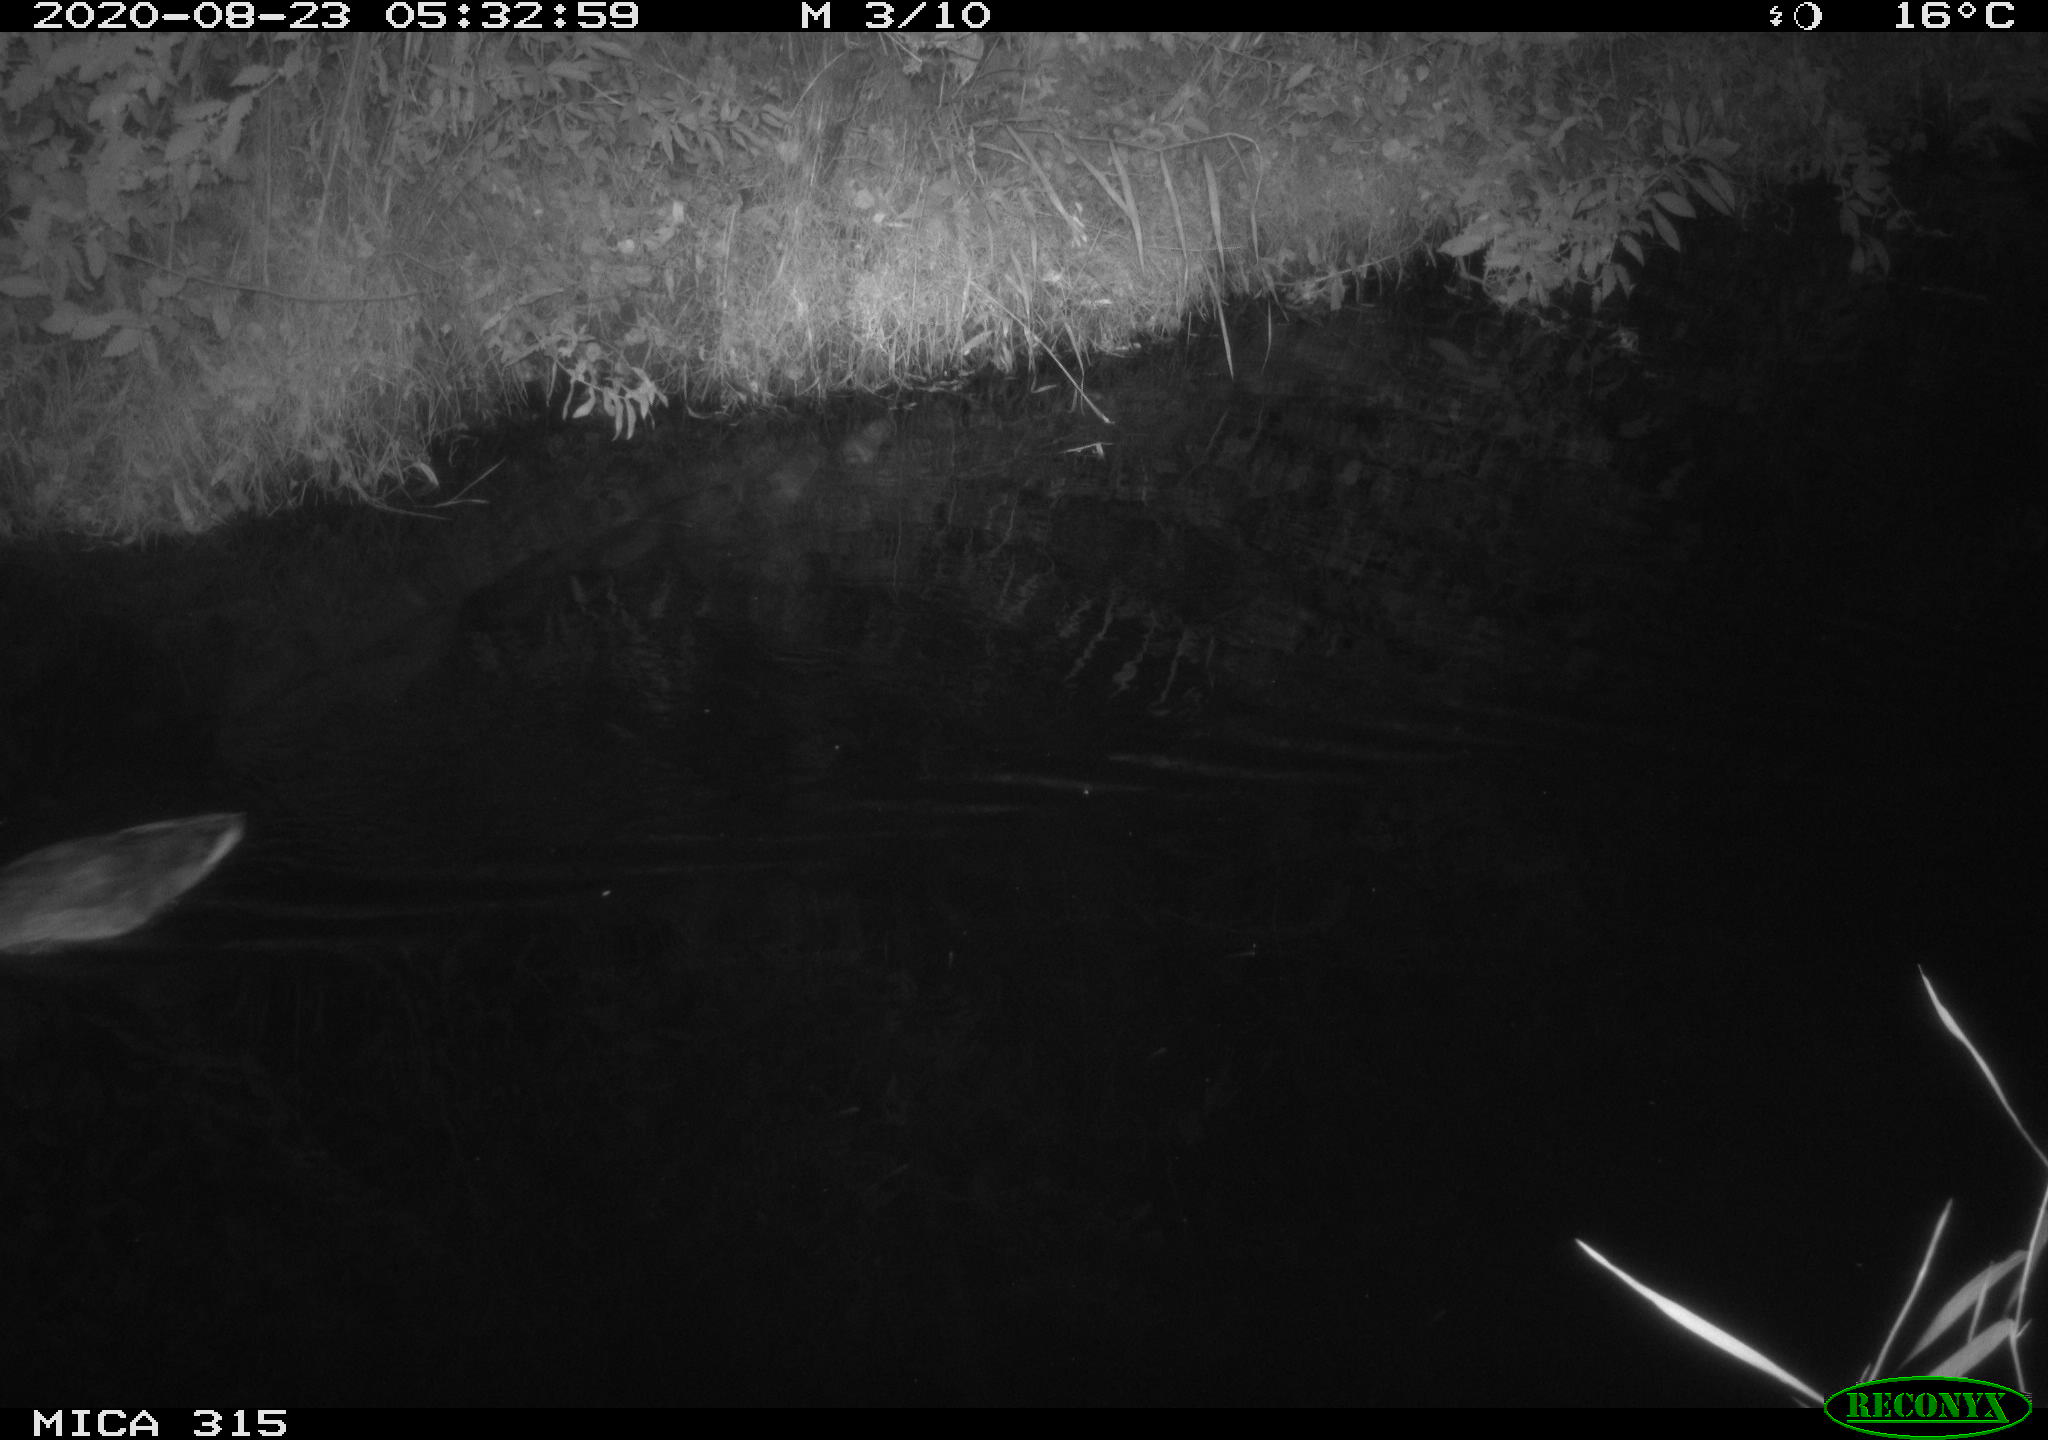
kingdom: Animalia
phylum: Chordata
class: Aves
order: Anseriformes
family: Anatidae
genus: Anas
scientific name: Anas platyrhynchos
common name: Mallard
